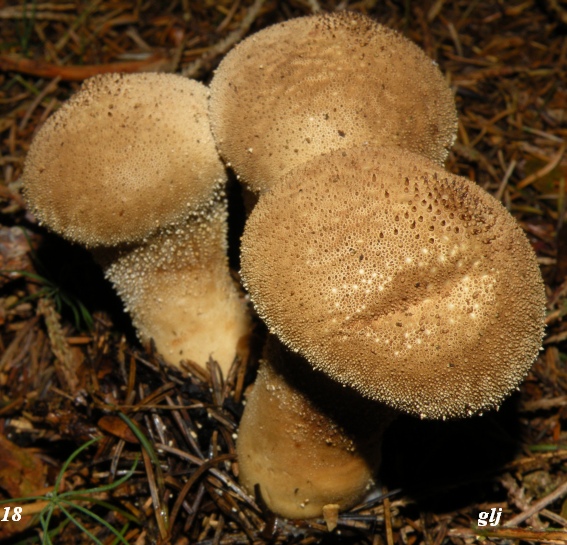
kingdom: Fungi
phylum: Basidiomycota
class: Agaricomycetes
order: Agaricales
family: Lycoperdaceae
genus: Lycoperdon
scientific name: Lycoperdon perlatum
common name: krystal-støvbold
